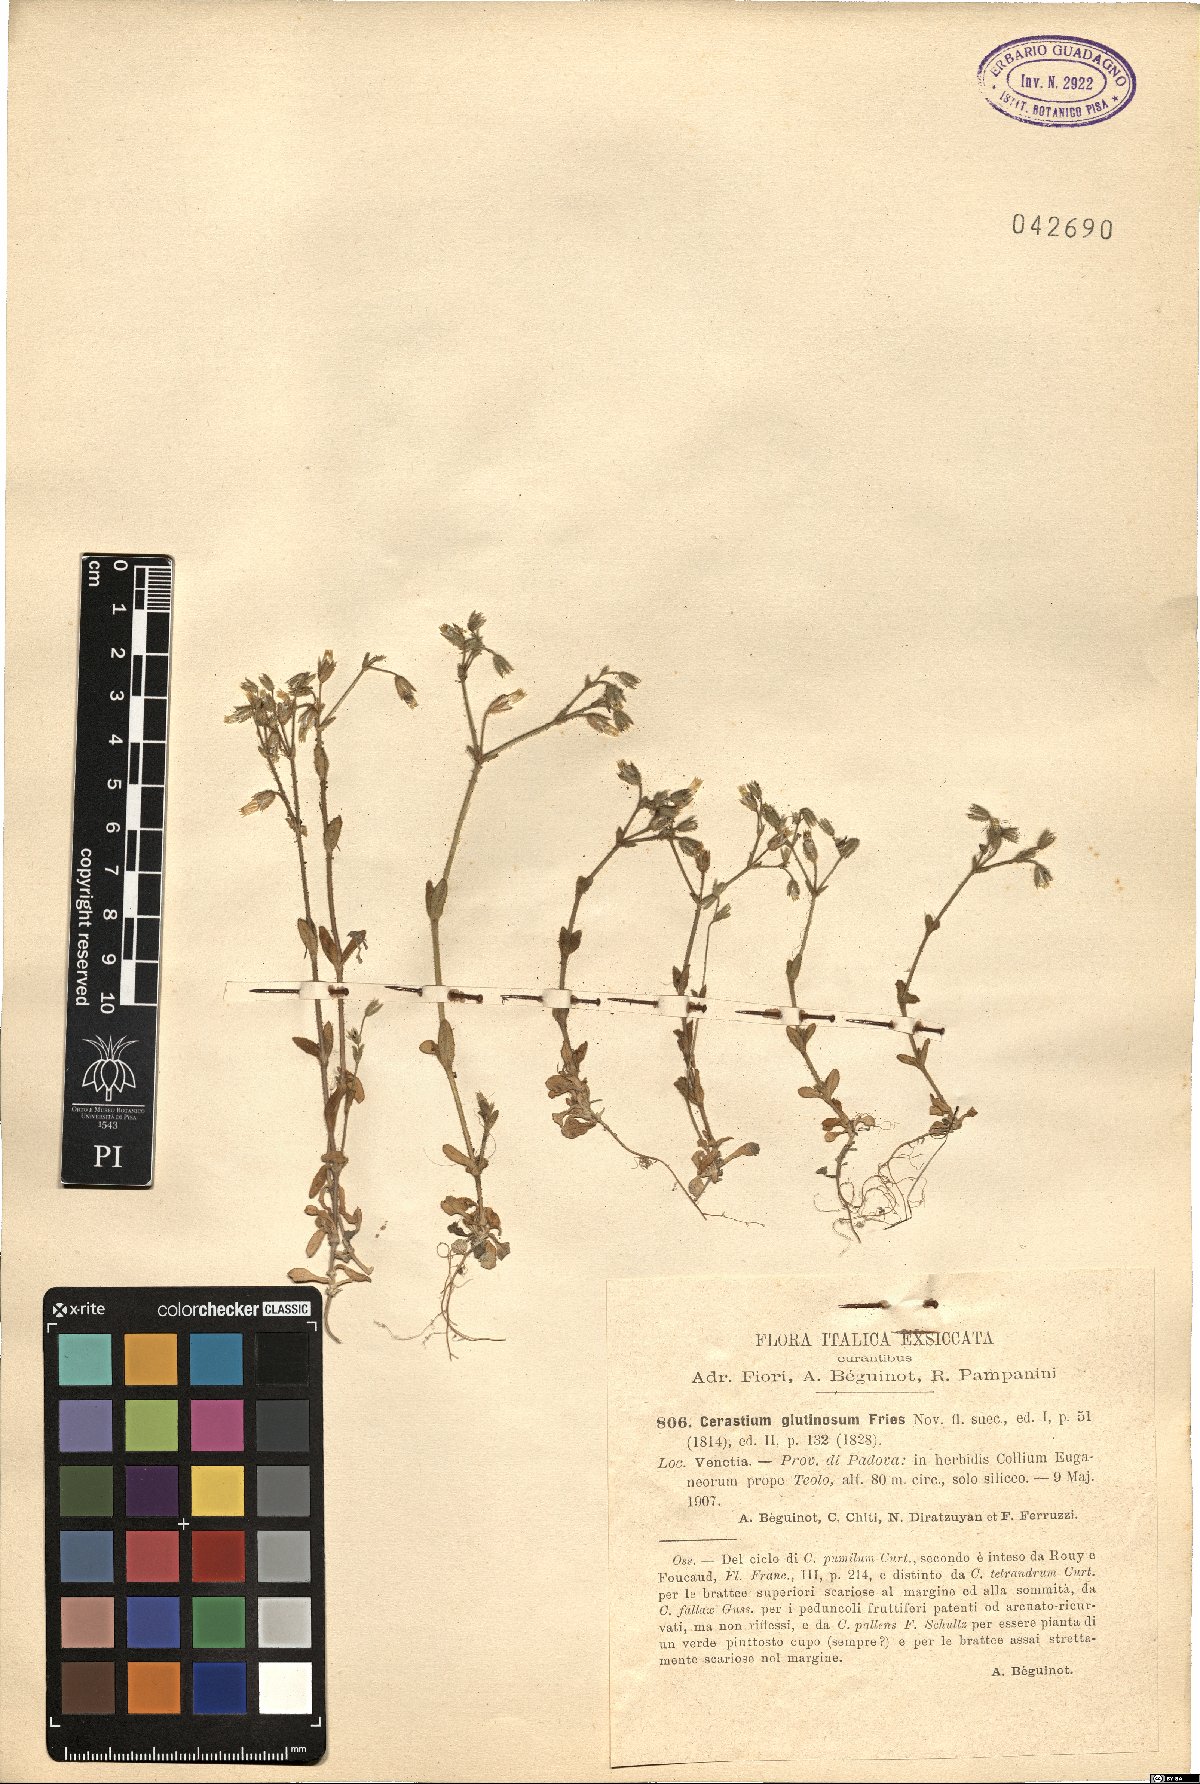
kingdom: Plantae
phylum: Tracheophyta
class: Magnoliopsida
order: Caryophyllales
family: Caryophyllaceae
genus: Cerastium
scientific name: Cerastium glutinosum
